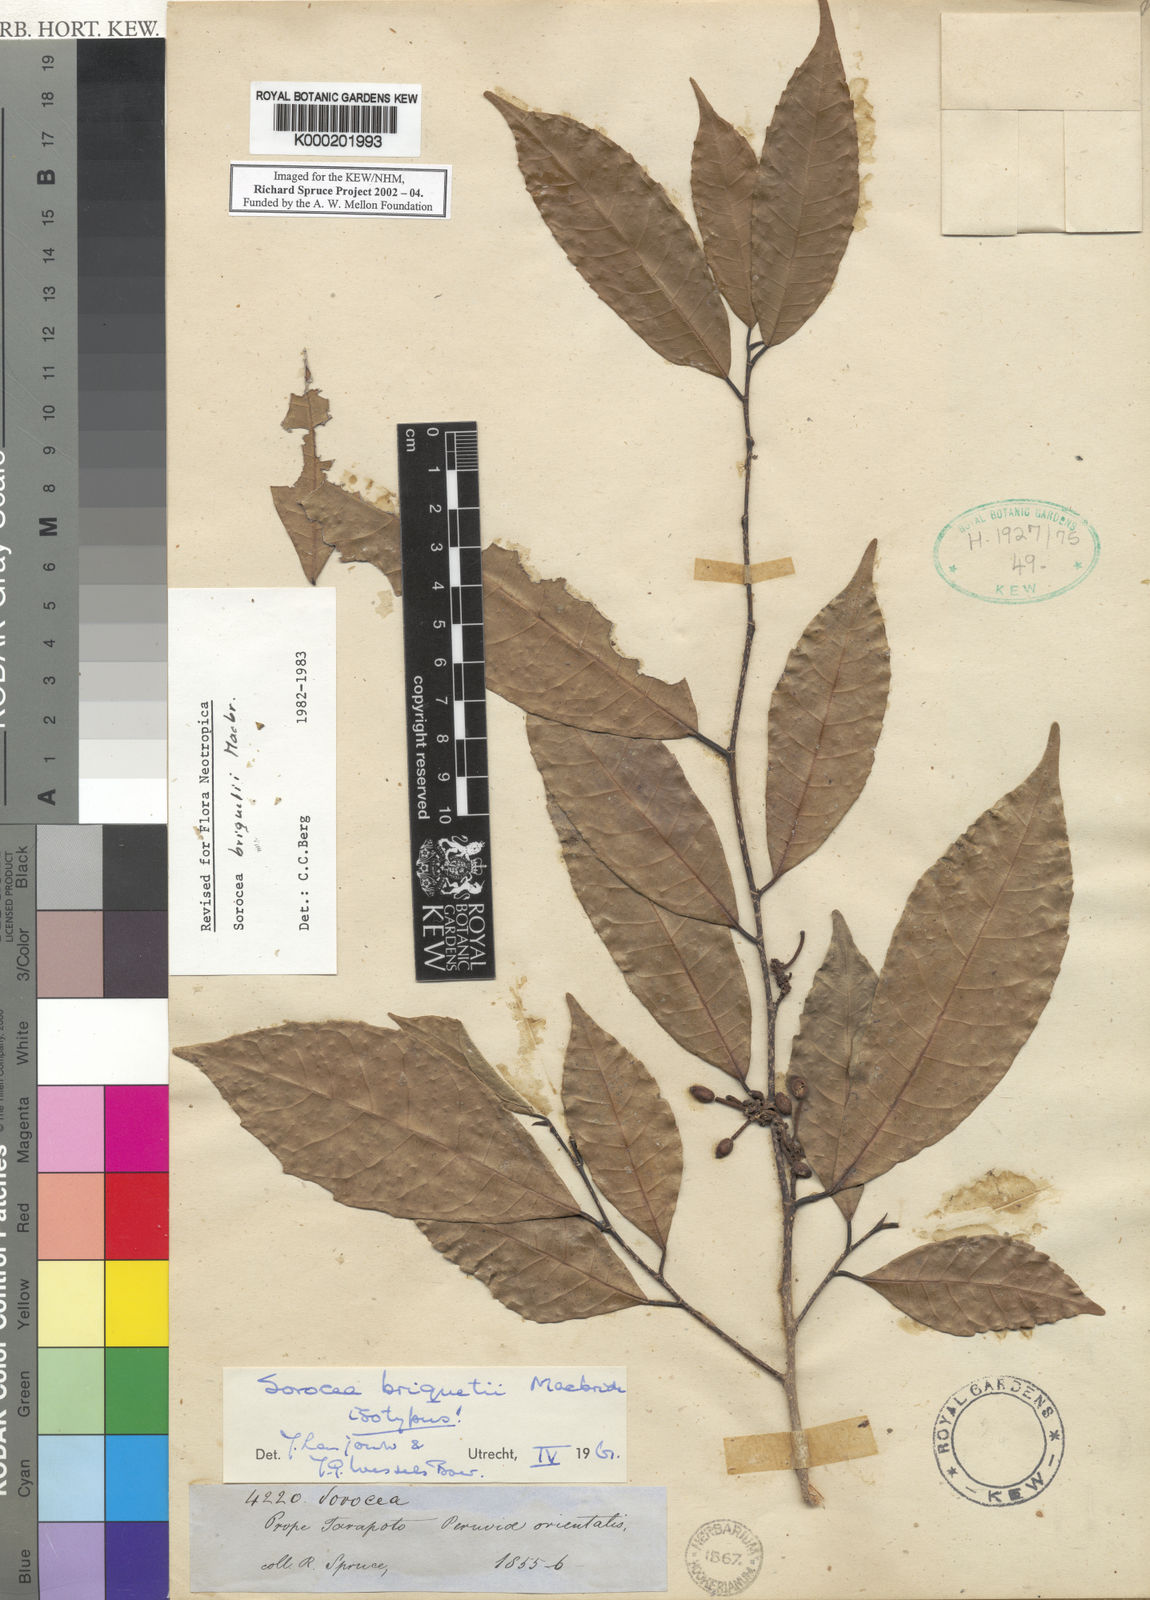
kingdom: Plantae
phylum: Tracheophyta
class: Magnoliopsida
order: Rosales
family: Moraceae
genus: Sorocea
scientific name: Sorocea briquetii
